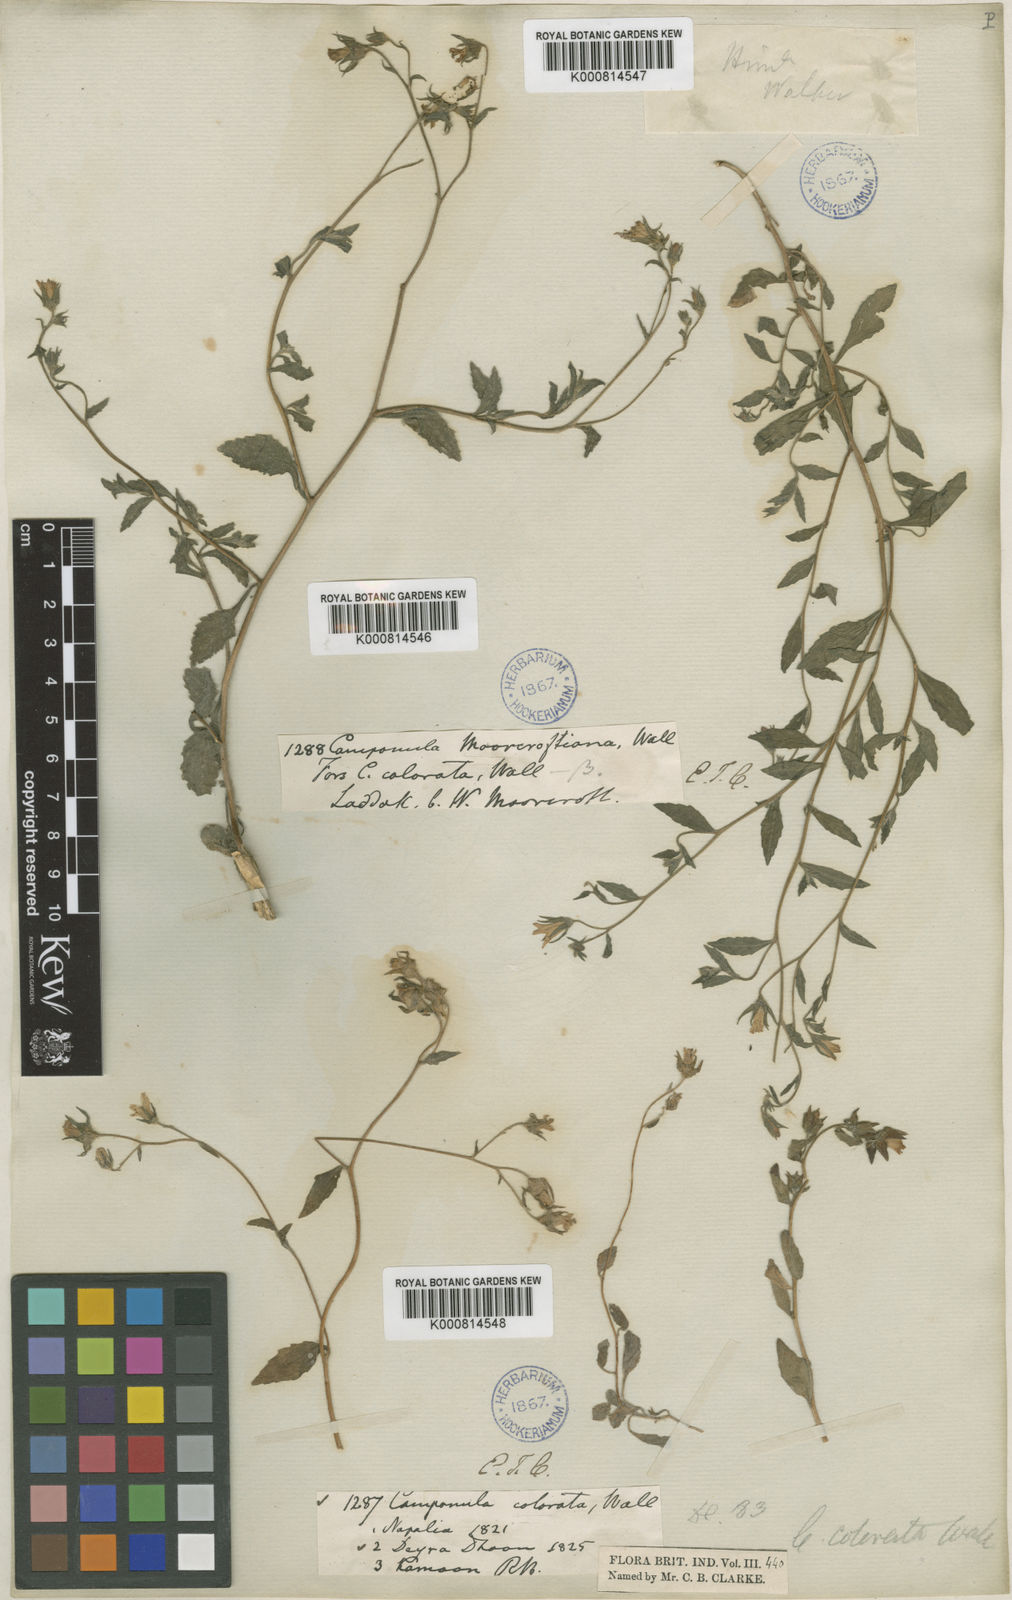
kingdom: Plantae
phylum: Tracheophyta
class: Magnoliopsida
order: Asterales
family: Campanulaceae
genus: Campanula
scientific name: Campanula pallida
